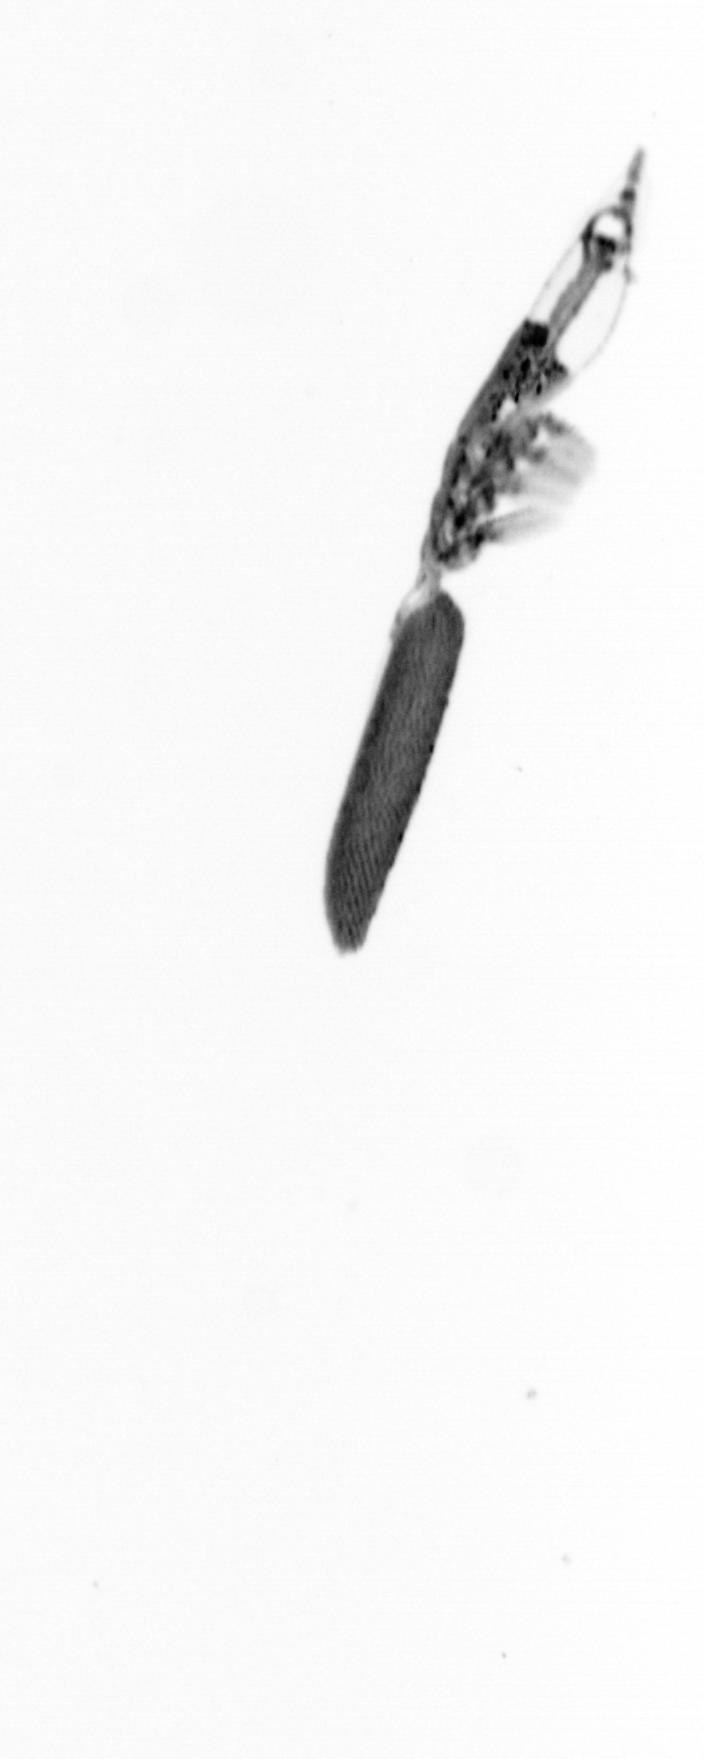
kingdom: Animalia
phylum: Arthropoda
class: Copepoda
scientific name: Copepoda
